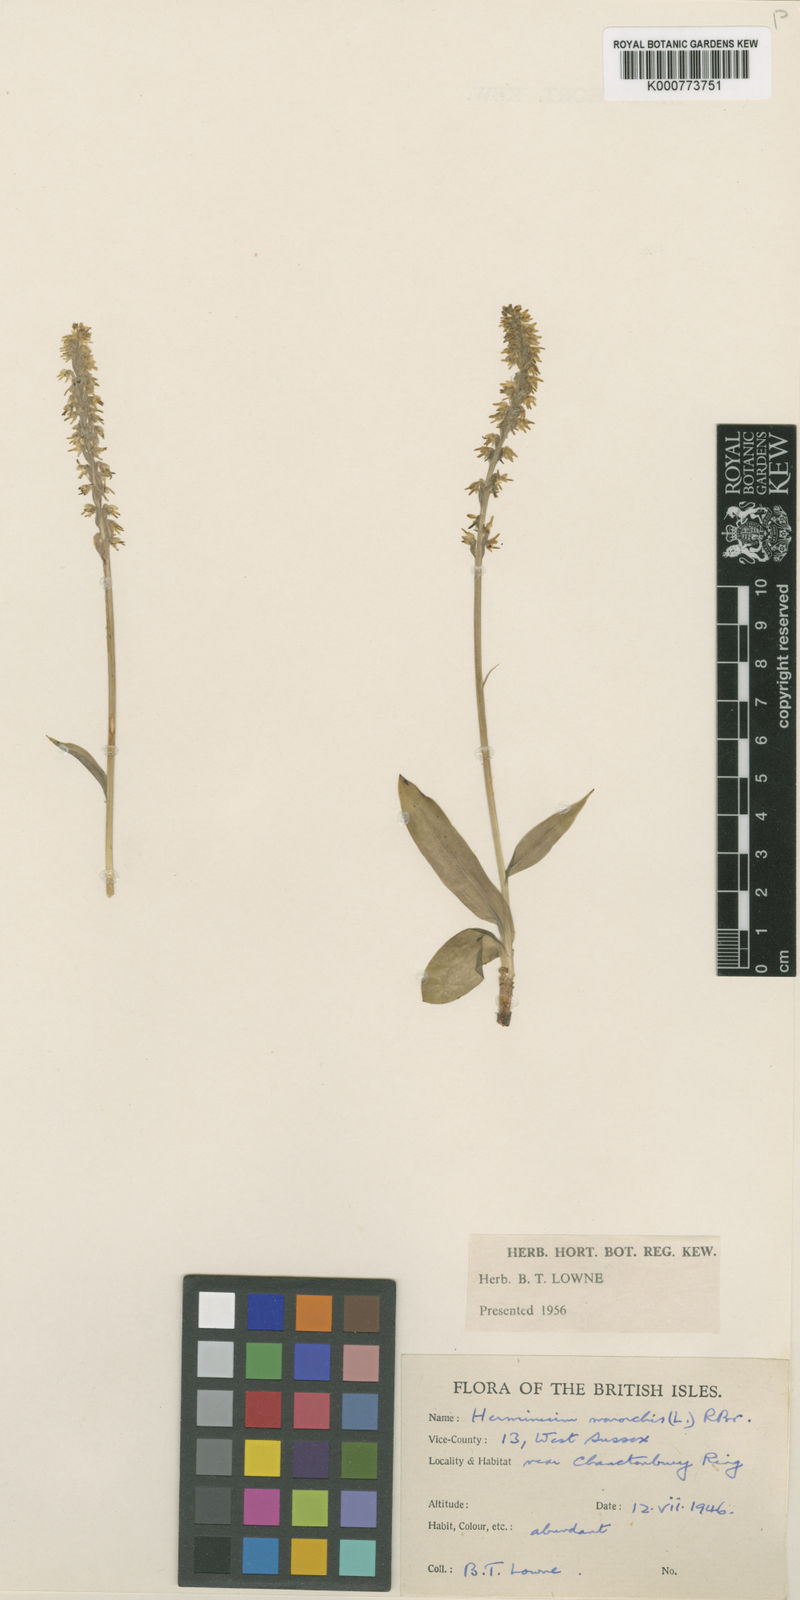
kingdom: Plantae
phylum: Tracheophyta
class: Liliopsida
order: Asparagales
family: Orchidaceae
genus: Herminium
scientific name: Herminium monorchis
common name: Musk orchid
